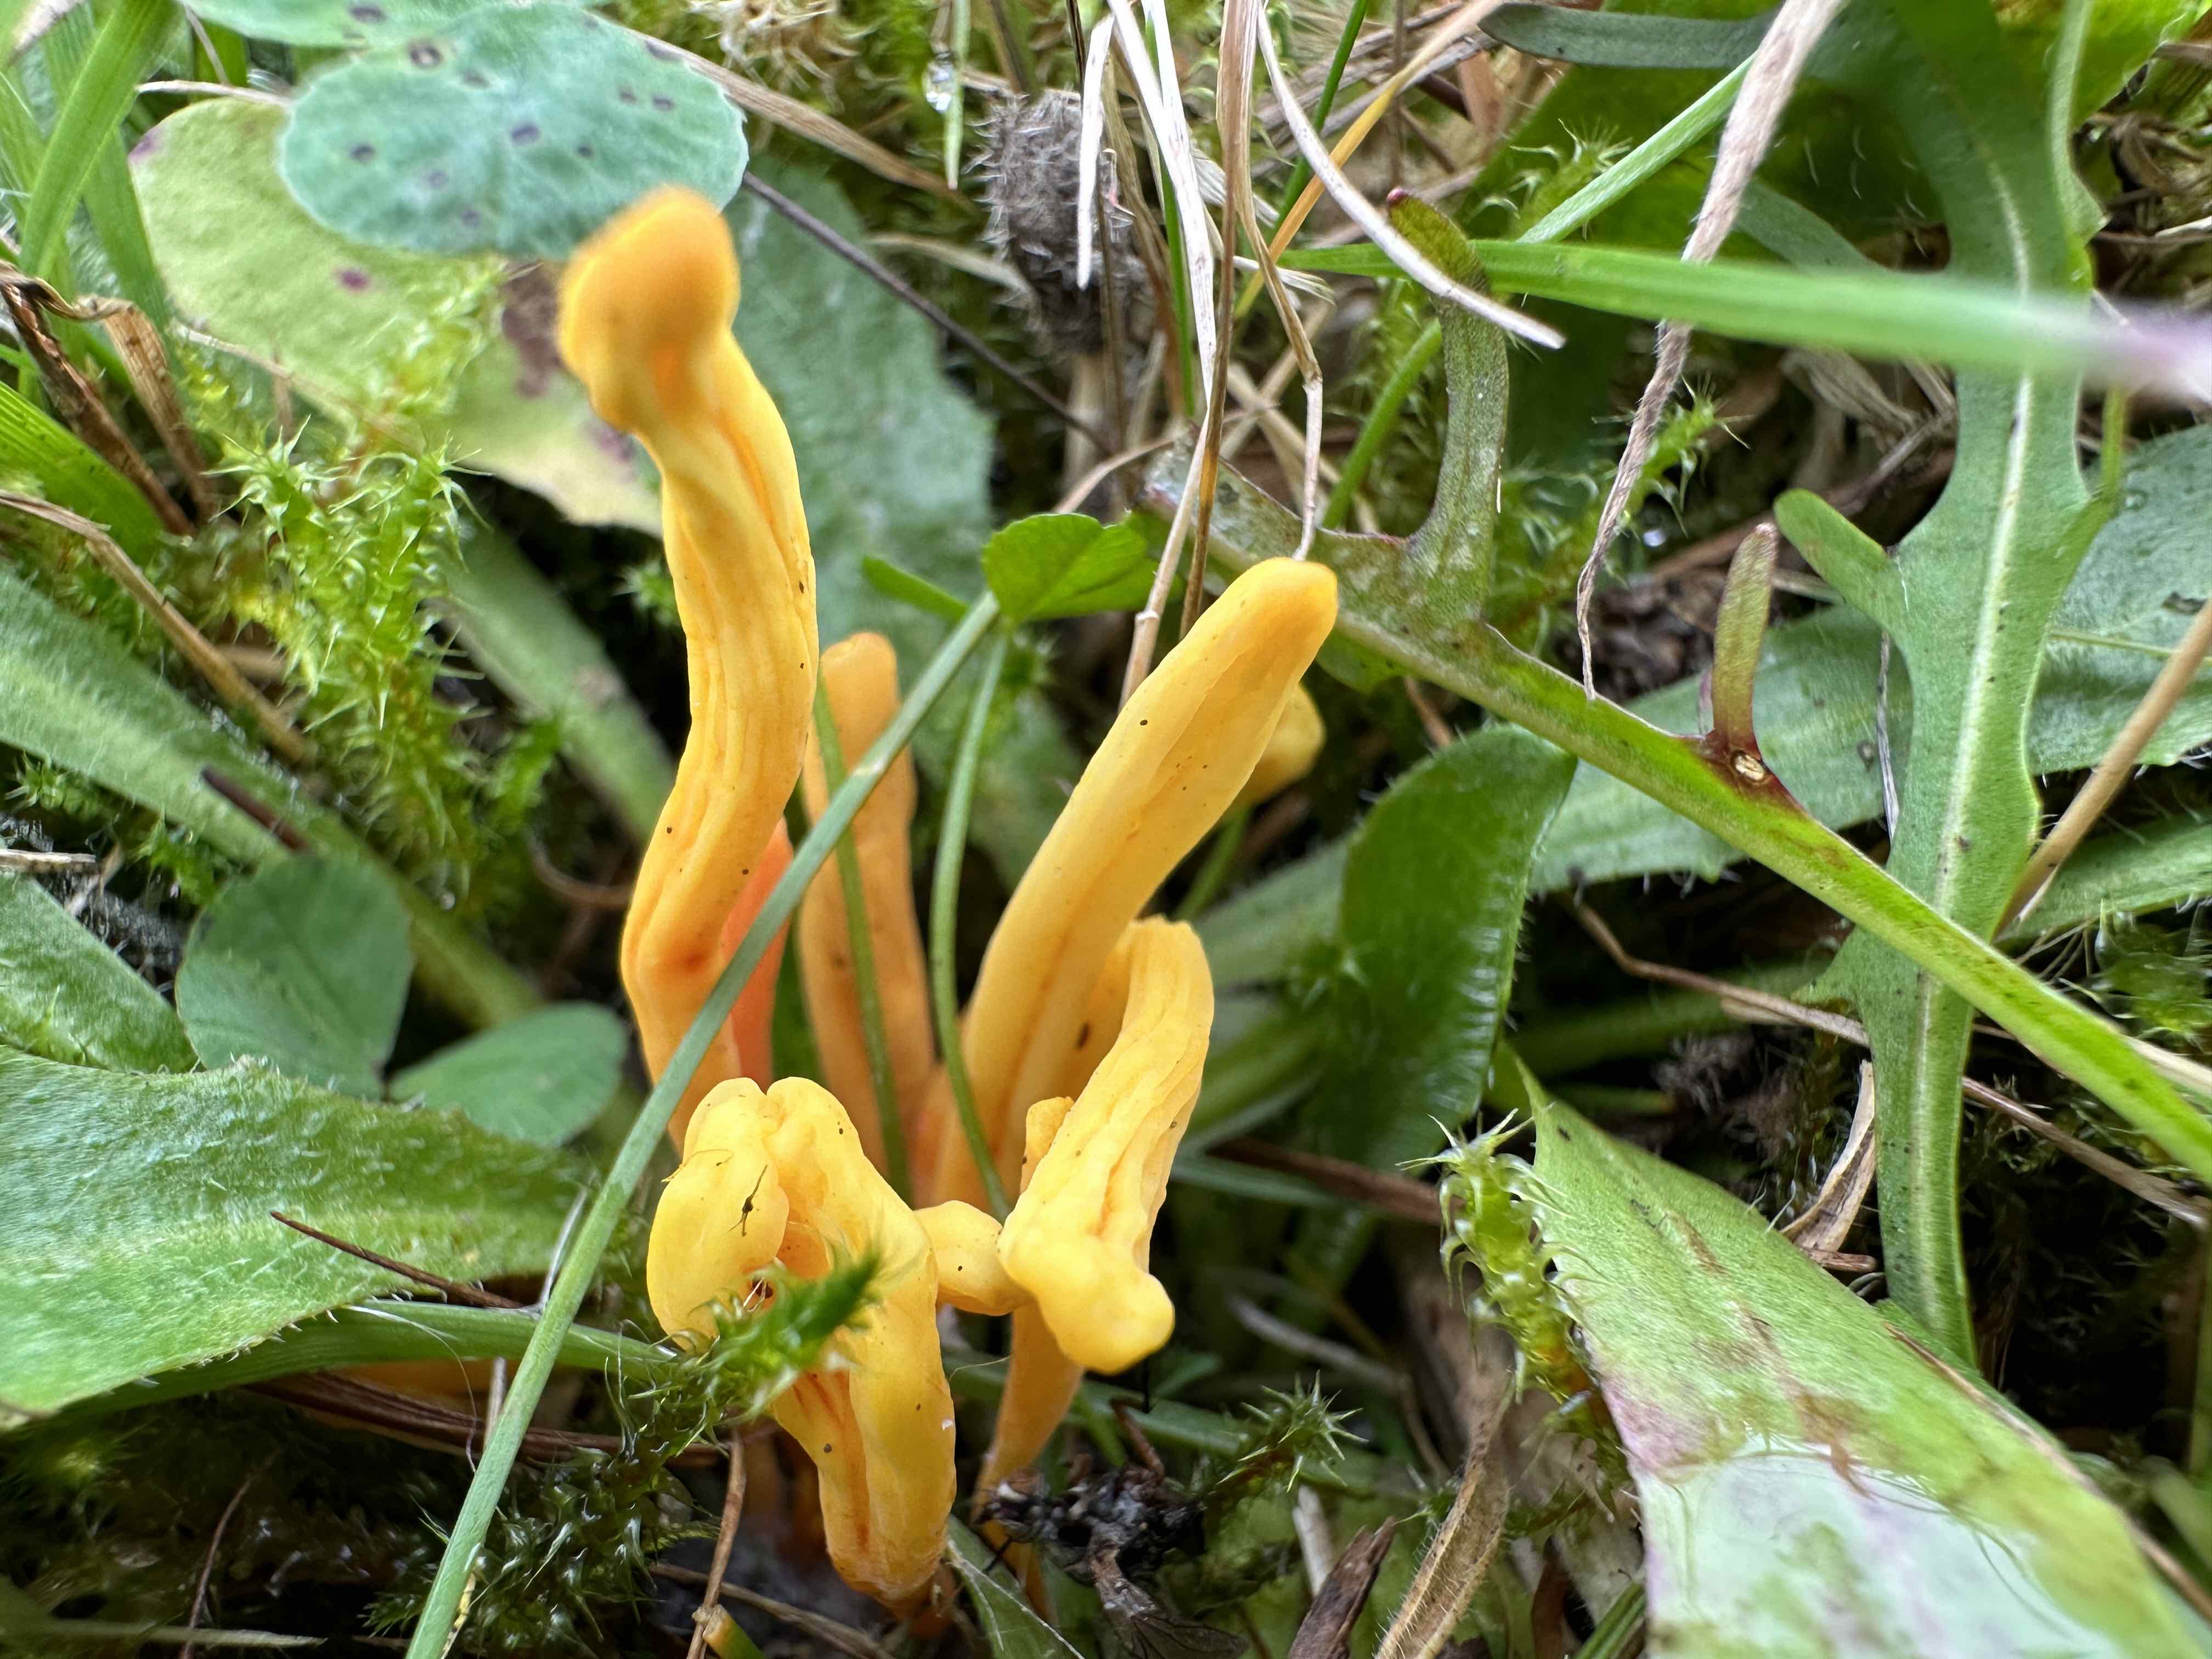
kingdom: Fungi
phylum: Basidiomycota
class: Agaricomycetes
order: Agaricales
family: Clavariaceae
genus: Clavulinopsis
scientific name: Clavulinopsis helvola
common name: orangegul køllesvamp
